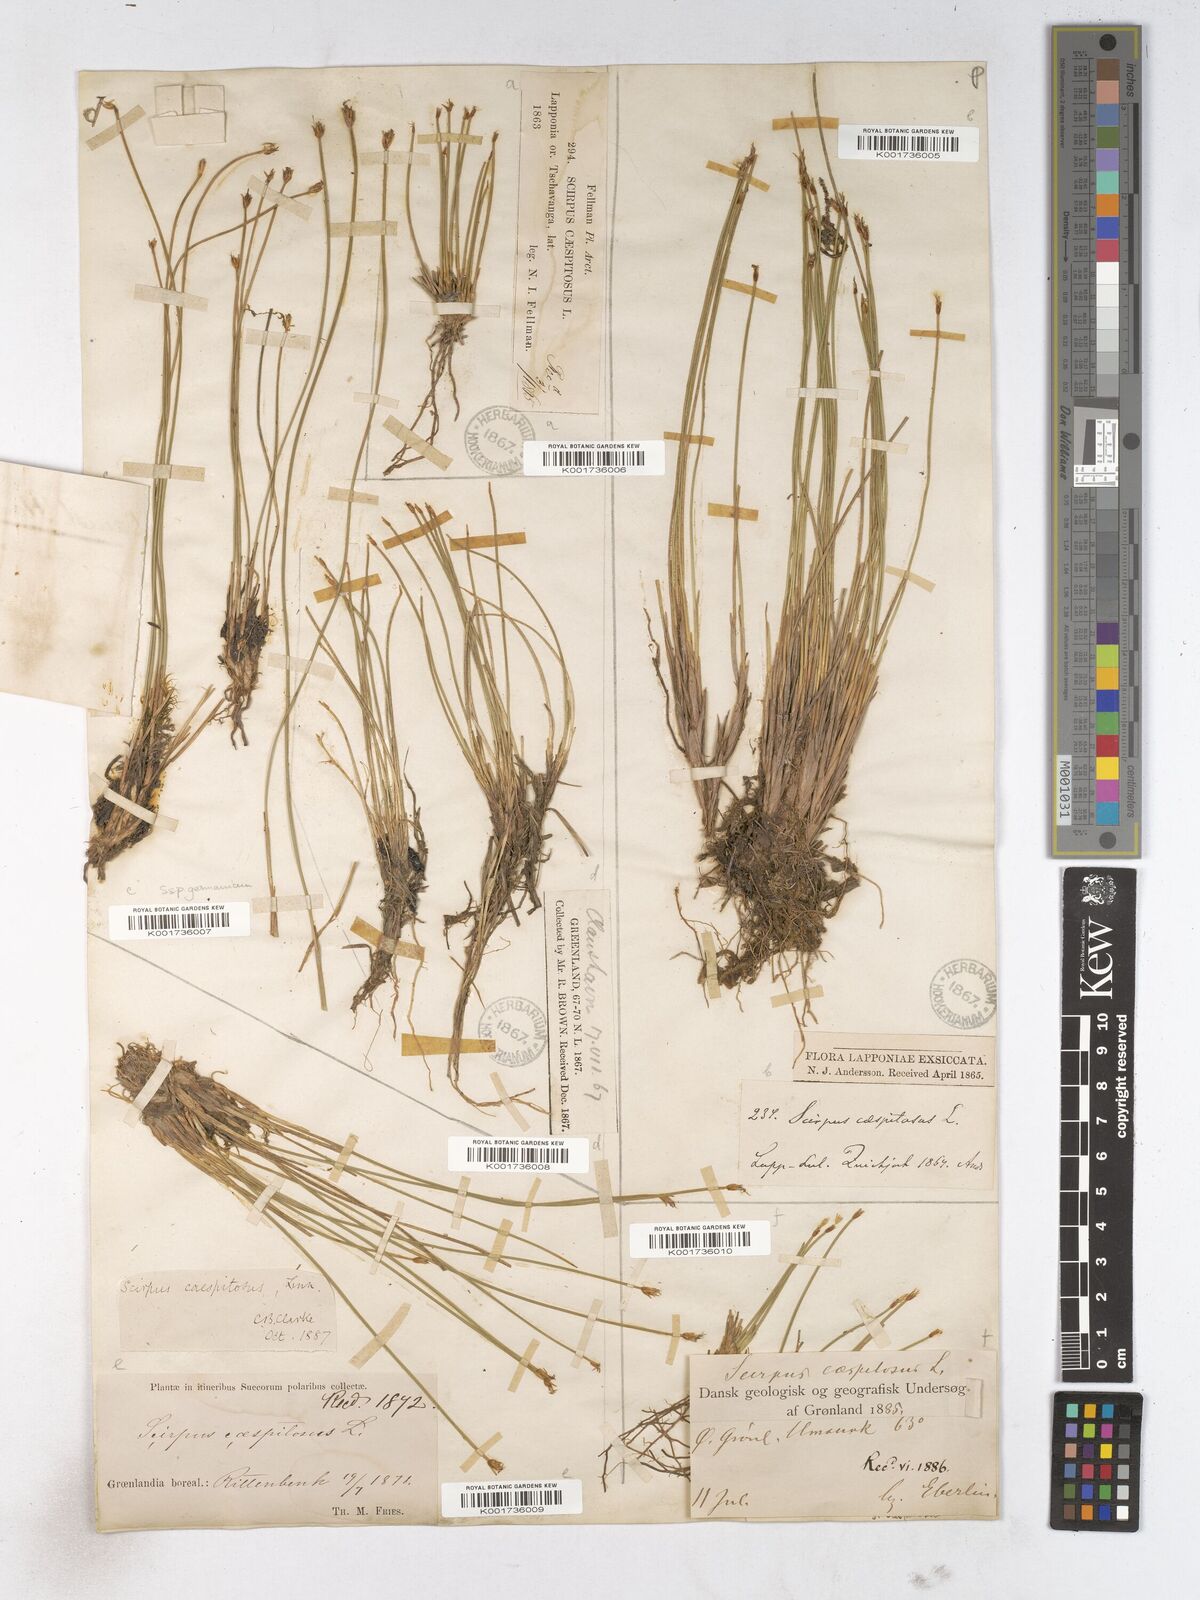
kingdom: Plantae
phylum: Tracheophyta
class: Liliopsida
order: Poales
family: Cyperaceae
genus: Trichophorum
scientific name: Trichophorum cespitosum
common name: Cespitose bulrush
